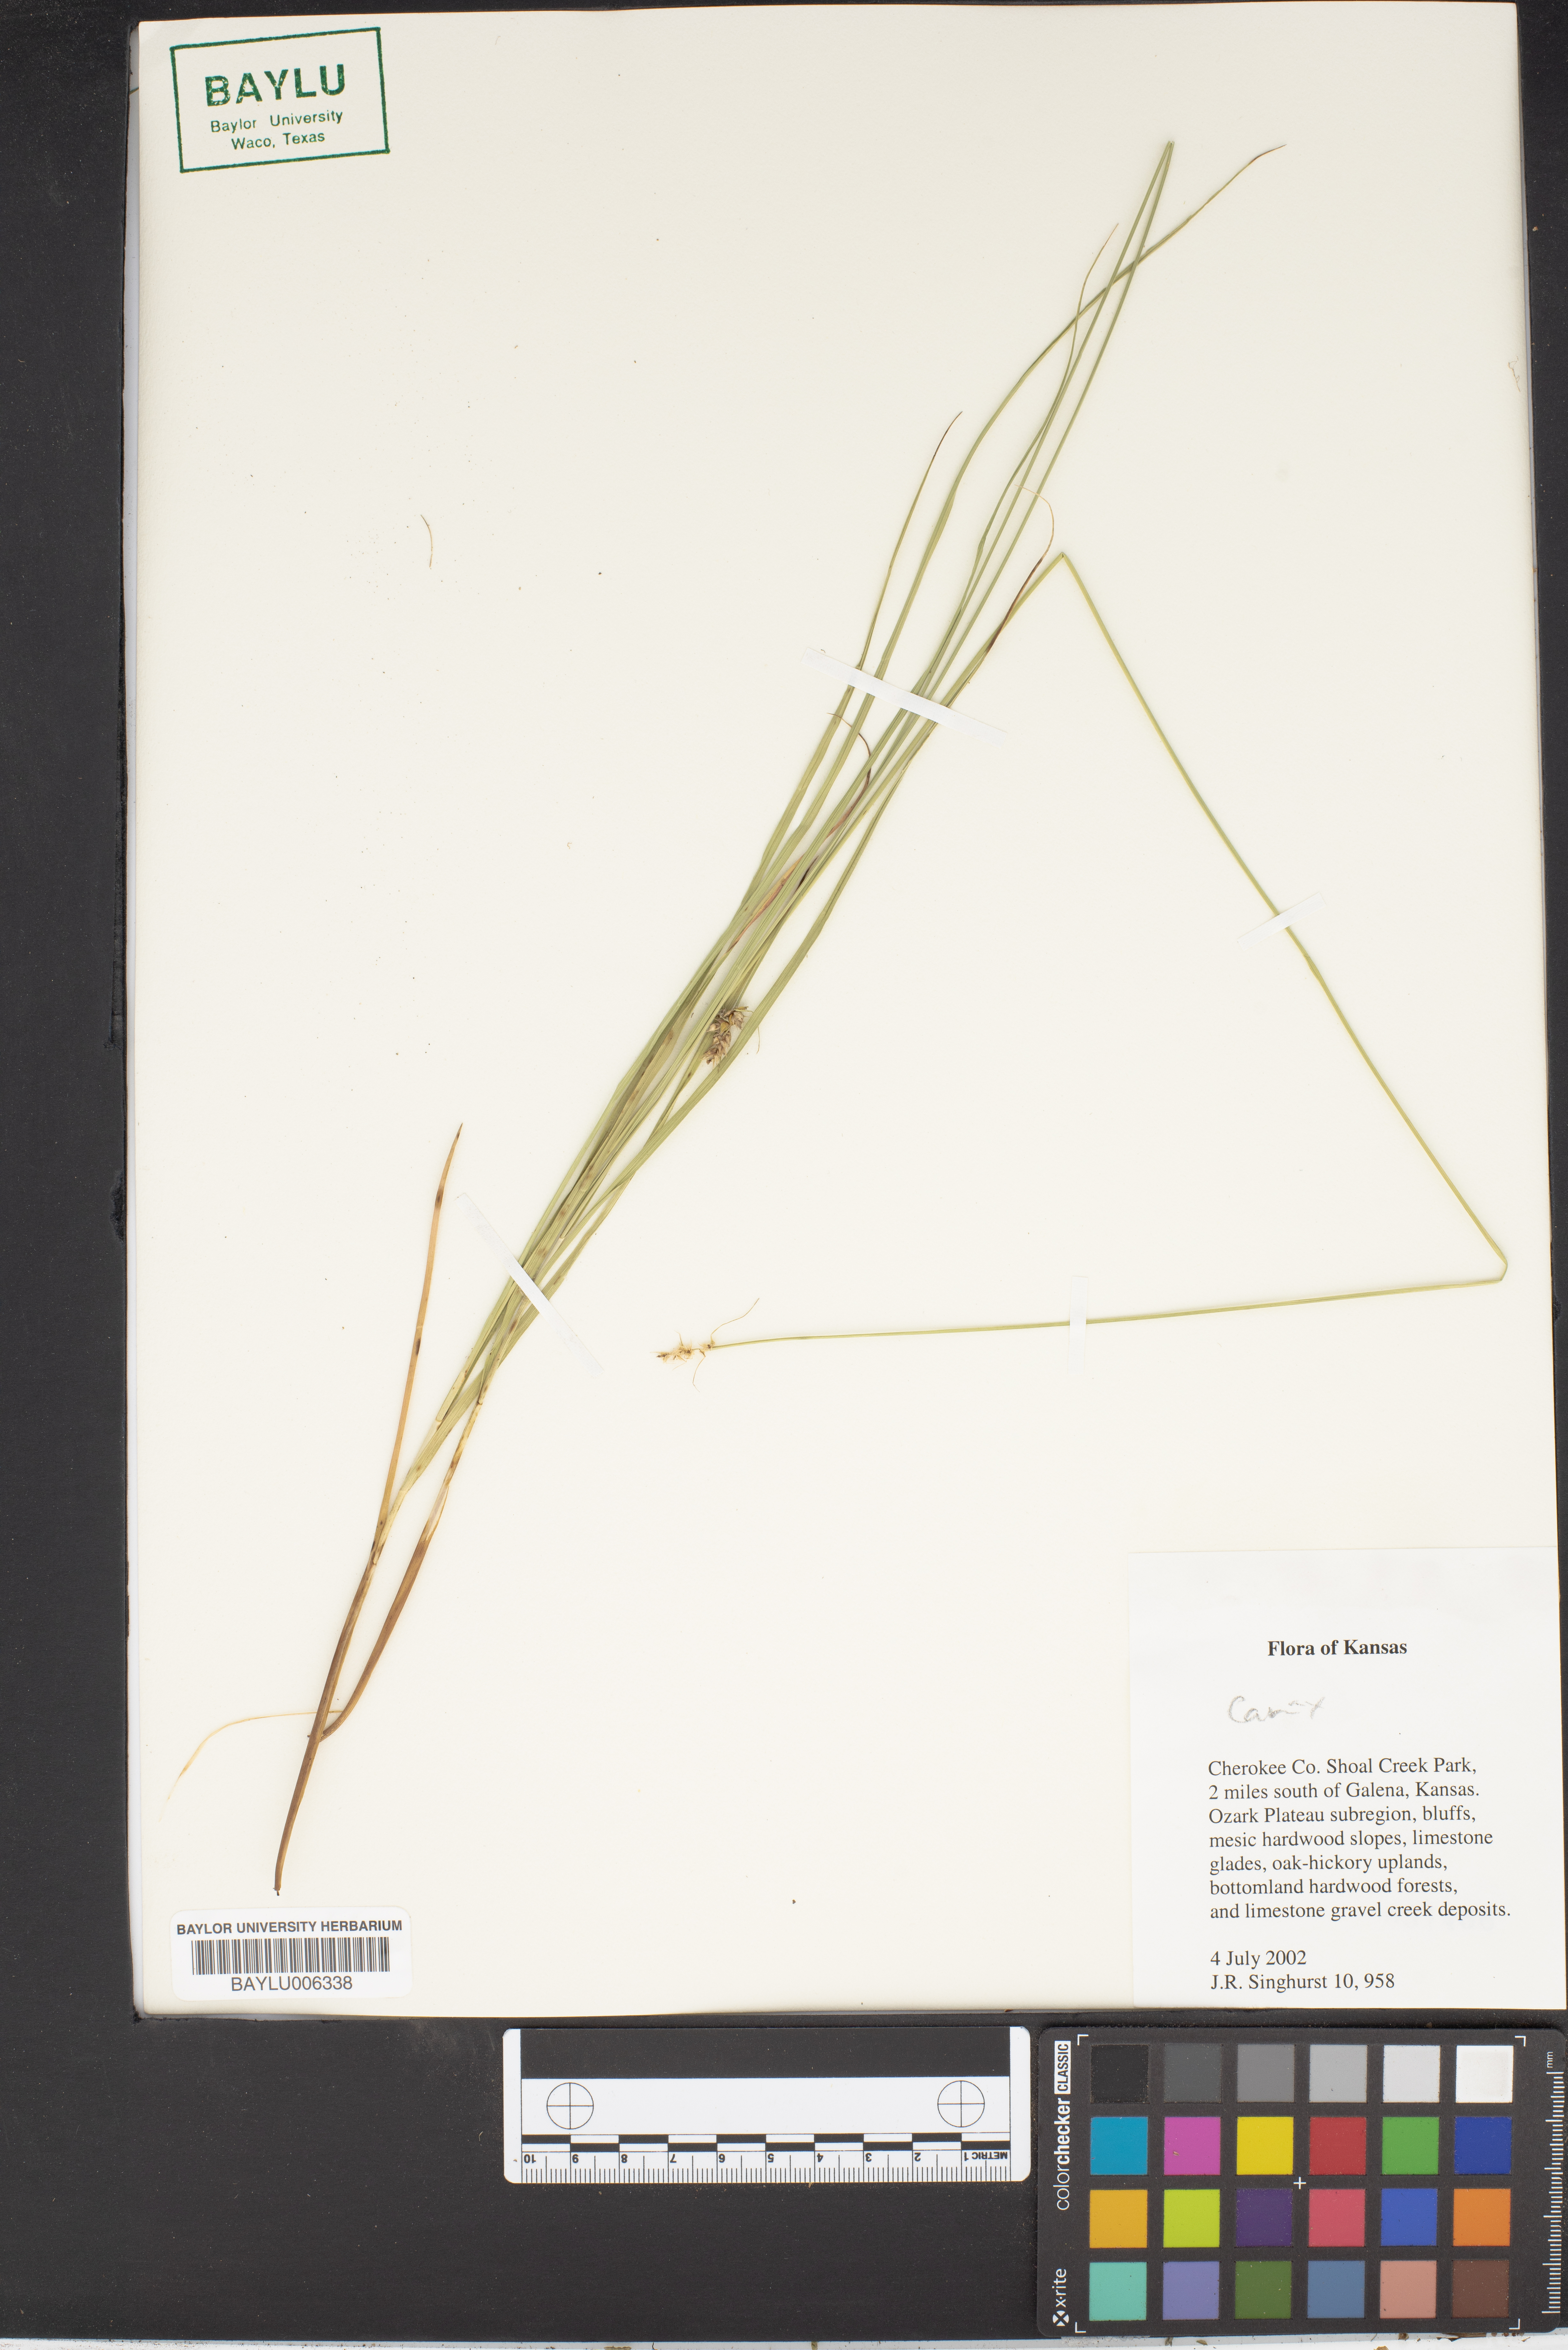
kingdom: Plantae
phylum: Tracheophyta
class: Liliopsida
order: Poales
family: Cyperaceae
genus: Carex
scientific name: Carex
